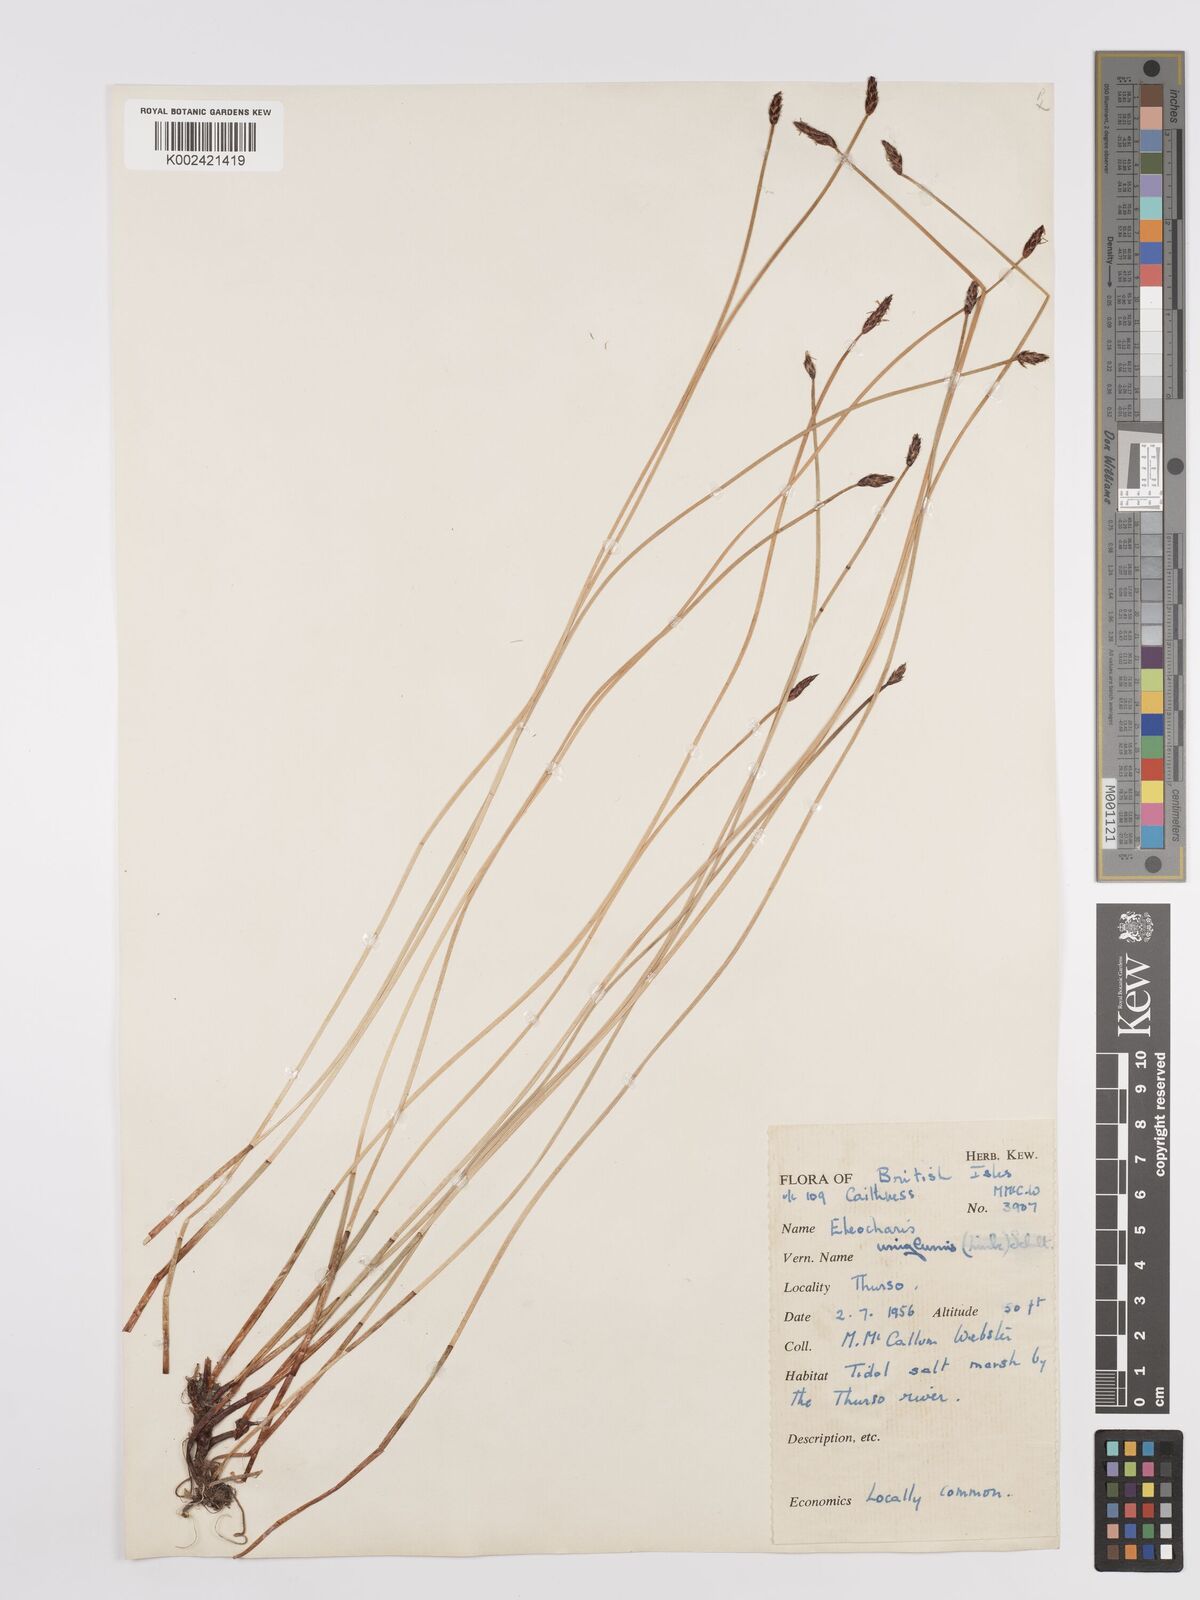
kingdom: Plantae
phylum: Tracheophyta
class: Liliopsida
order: Poales
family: Cyperaceae
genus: Eleocharis
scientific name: Eleocharis uniglumis
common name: Slender spike-rush
